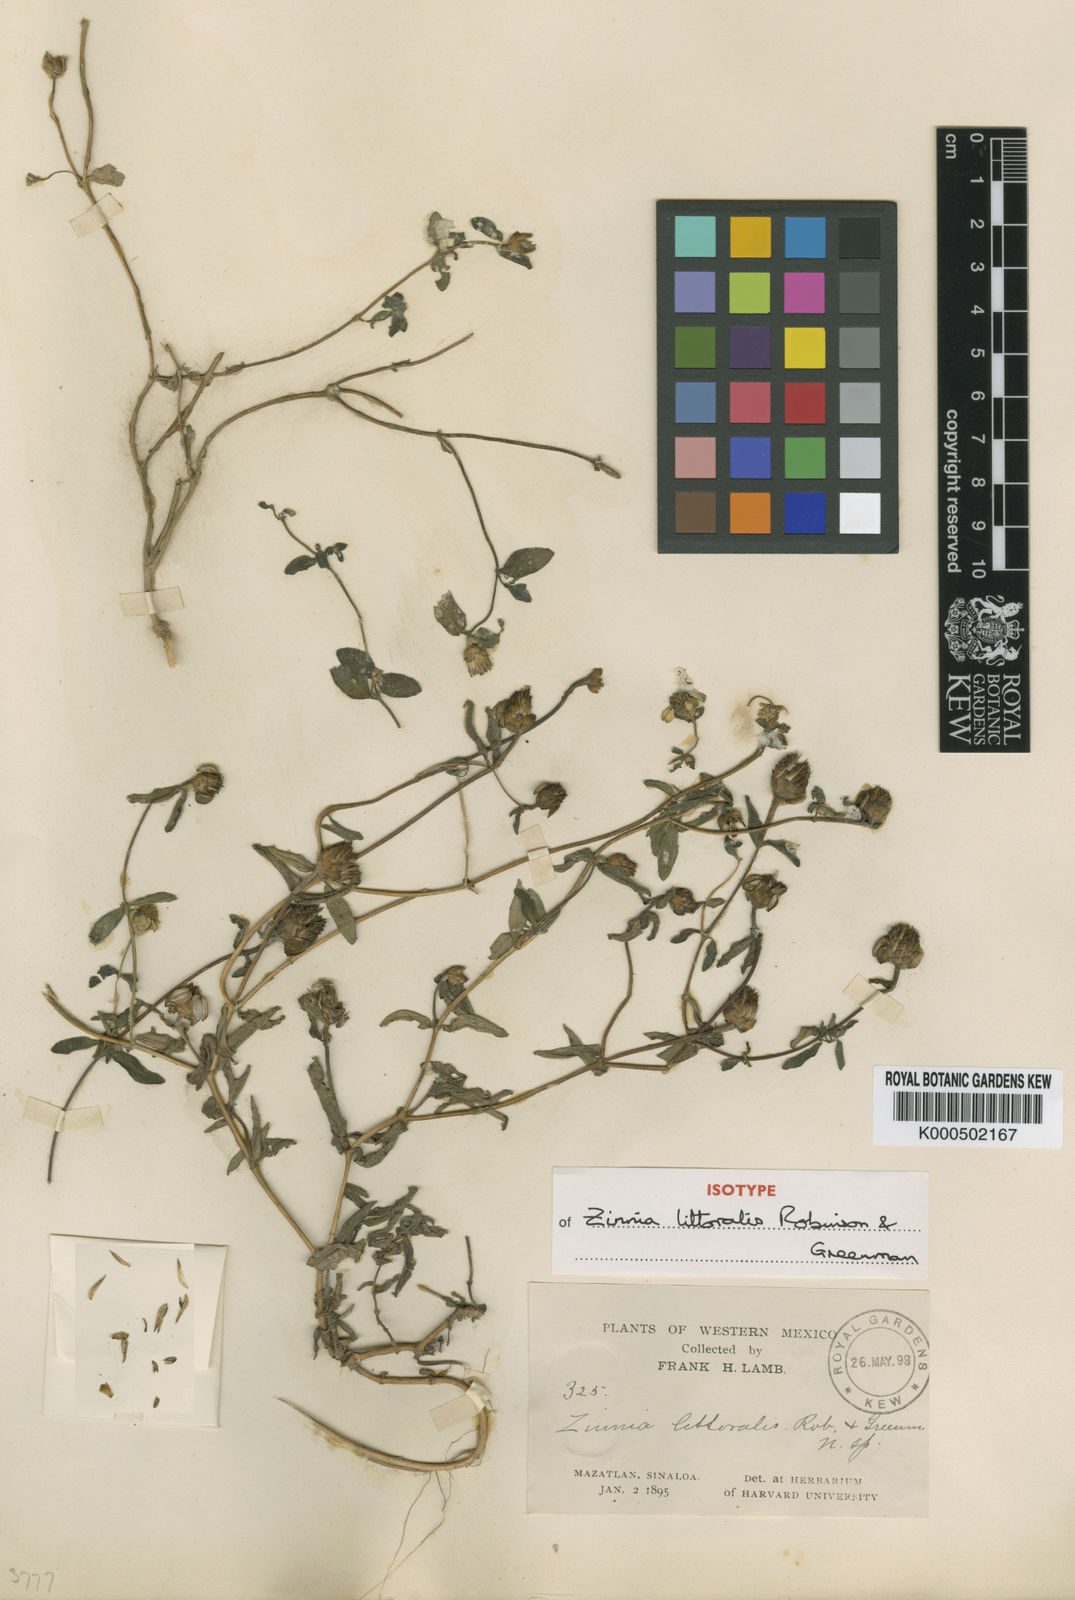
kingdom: Plantae
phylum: Tracheophyta
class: Magnoliopsida
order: Asterales
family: Asteraceae
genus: Zinnia
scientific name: Zinnia angustifolia
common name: Narrowleaf zinnia
